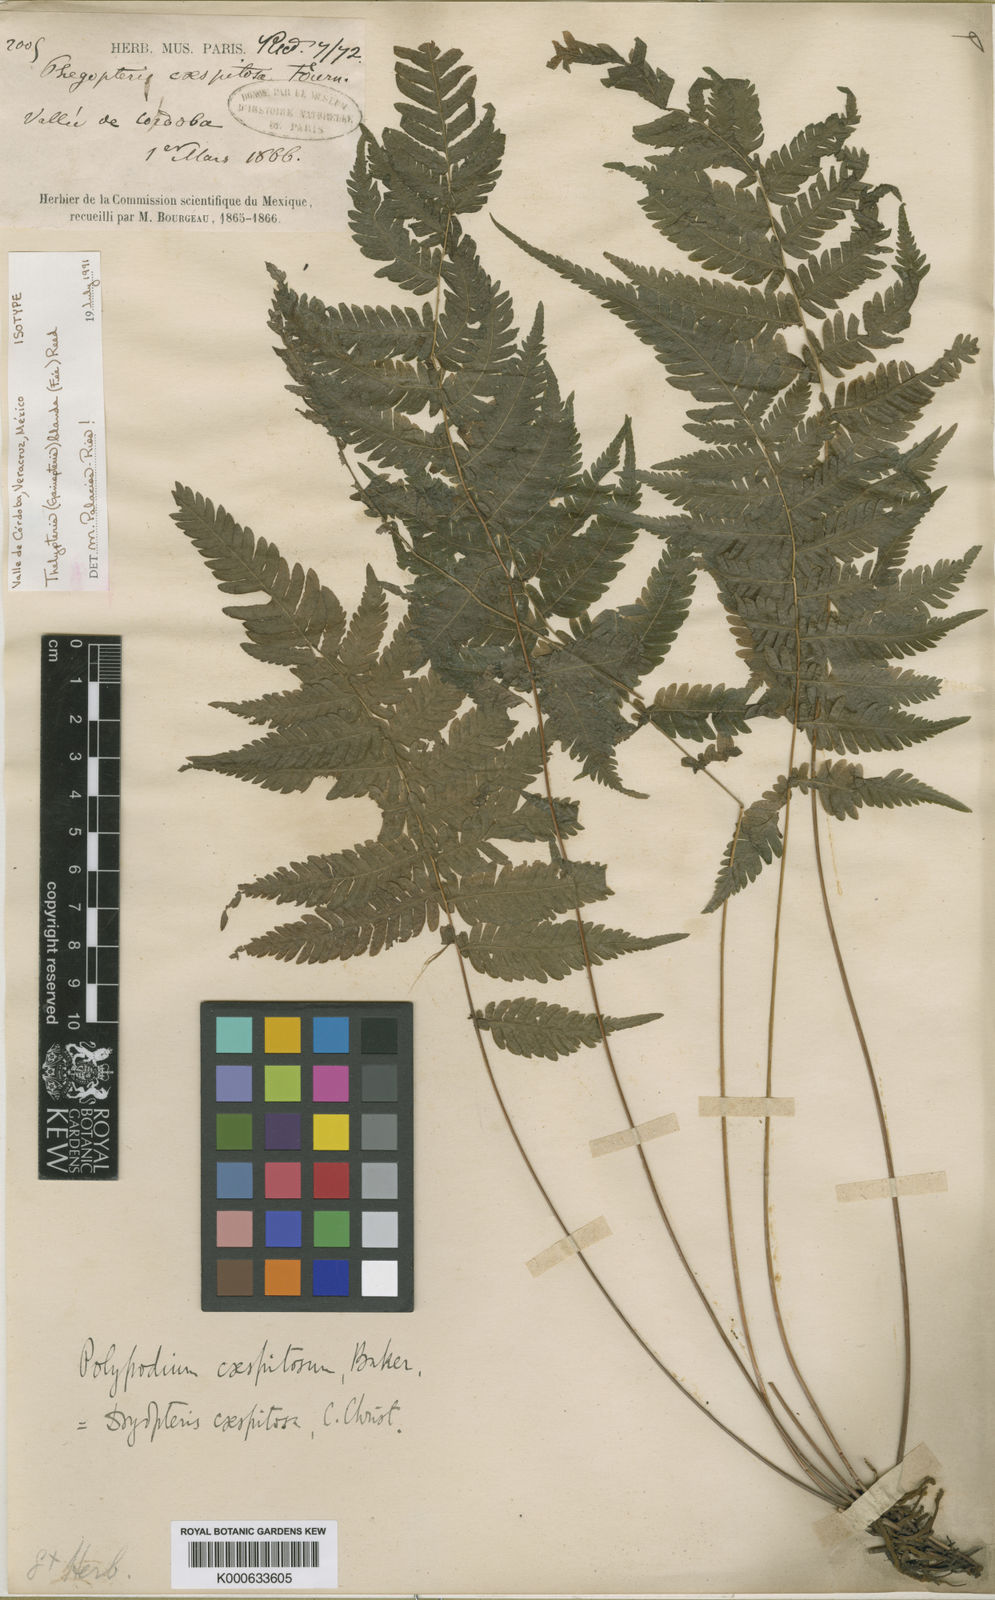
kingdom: Plantae
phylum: Tracheophyta
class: Polypodiopsida
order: Polypodiales
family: Thelypteridaceae
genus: Goniopteris
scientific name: Goniopteris blanda
